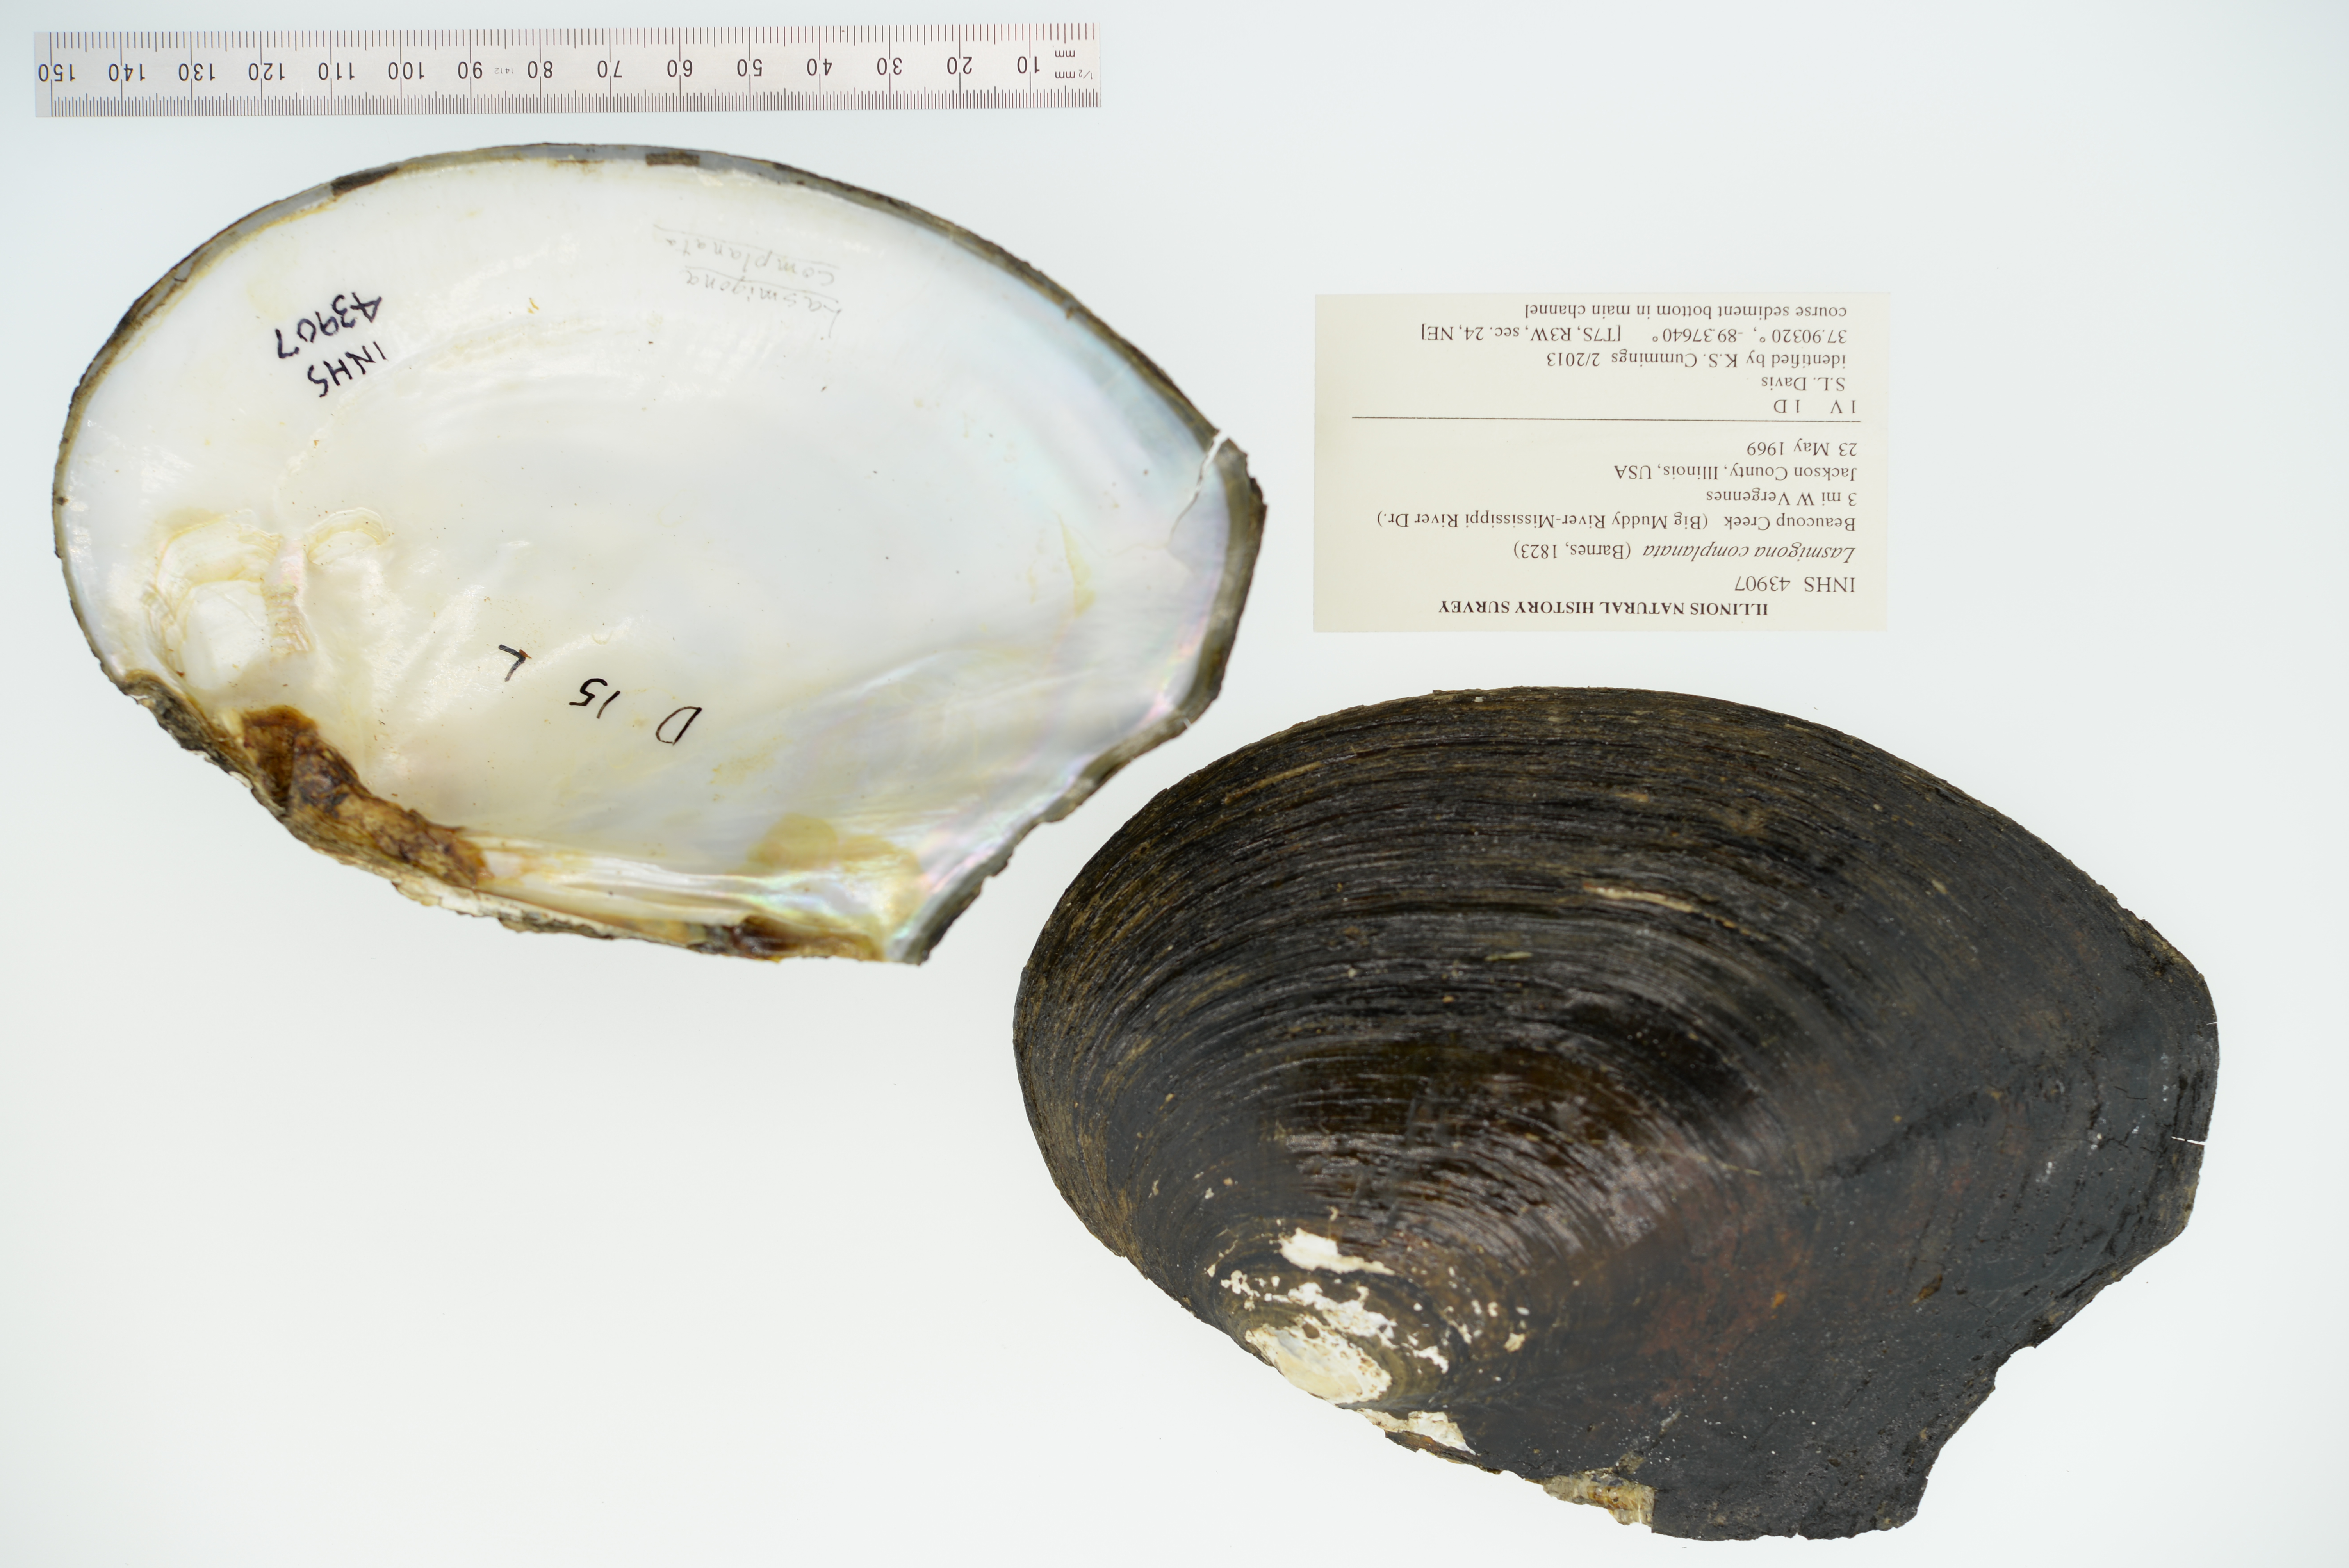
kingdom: Animalia
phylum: Mollusca
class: Bivalvia
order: Unionida
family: Unionidae
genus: Lasmigona
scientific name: Lasmigona complanata
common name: White heelsplitter
